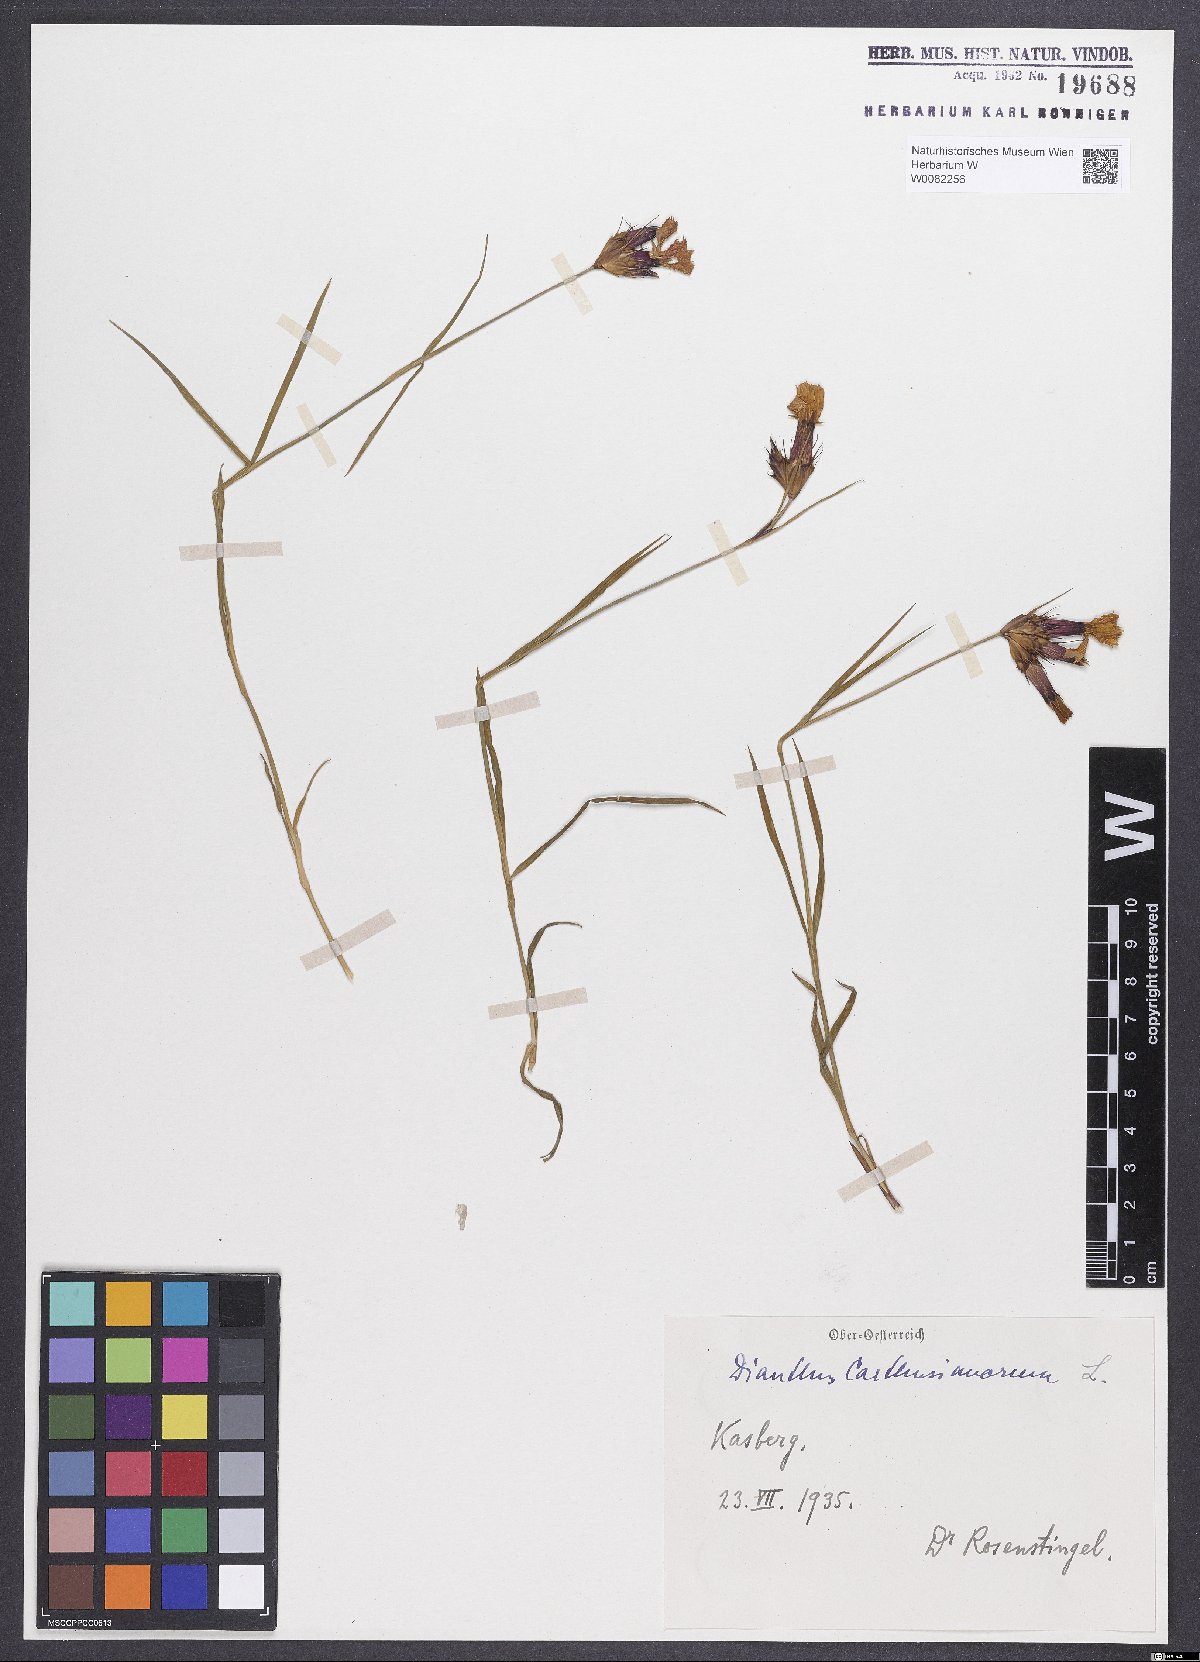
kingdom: Plantae
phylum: Tracheophyta
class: Magnoliopsida
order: Caryophyllales
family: Caryophyllaceae
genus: Dianthus
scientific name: Dianthus carthusianorum
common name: Carthusian pink
